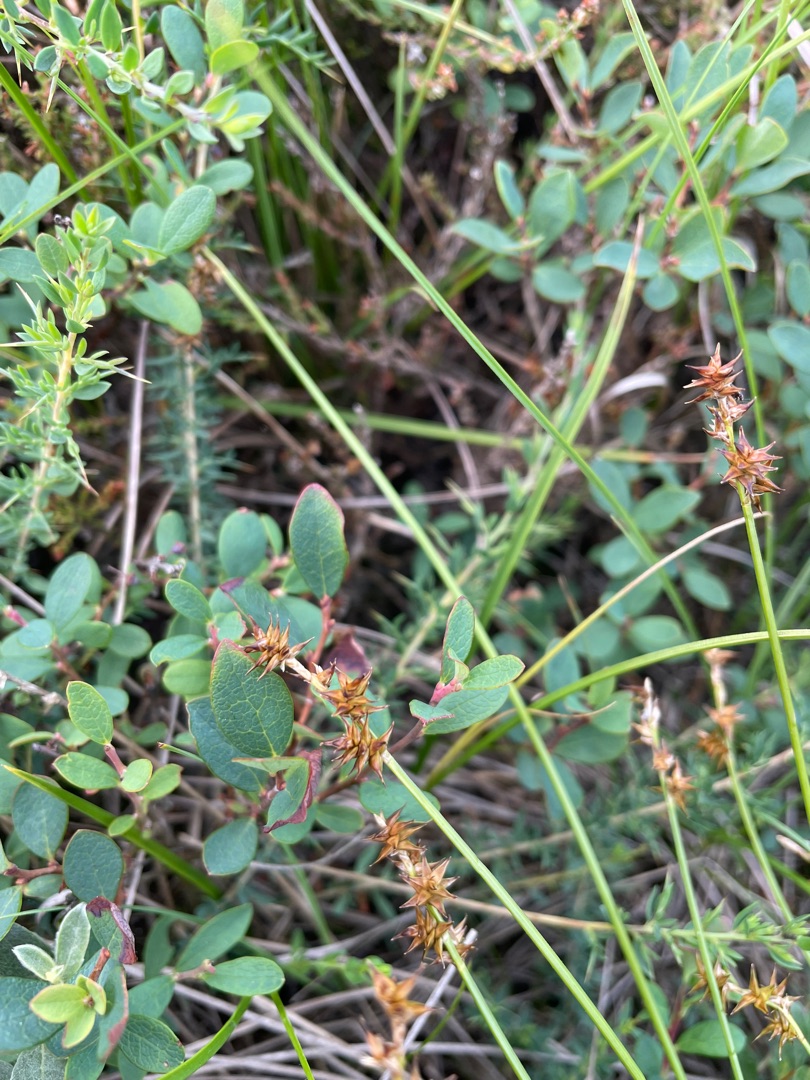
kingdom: Plantae
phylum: Tracheophyta
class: Liliopsida
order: Poales
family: Cyperaceae
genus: Carex
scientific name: Carex echinata
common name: Stjerne-star
